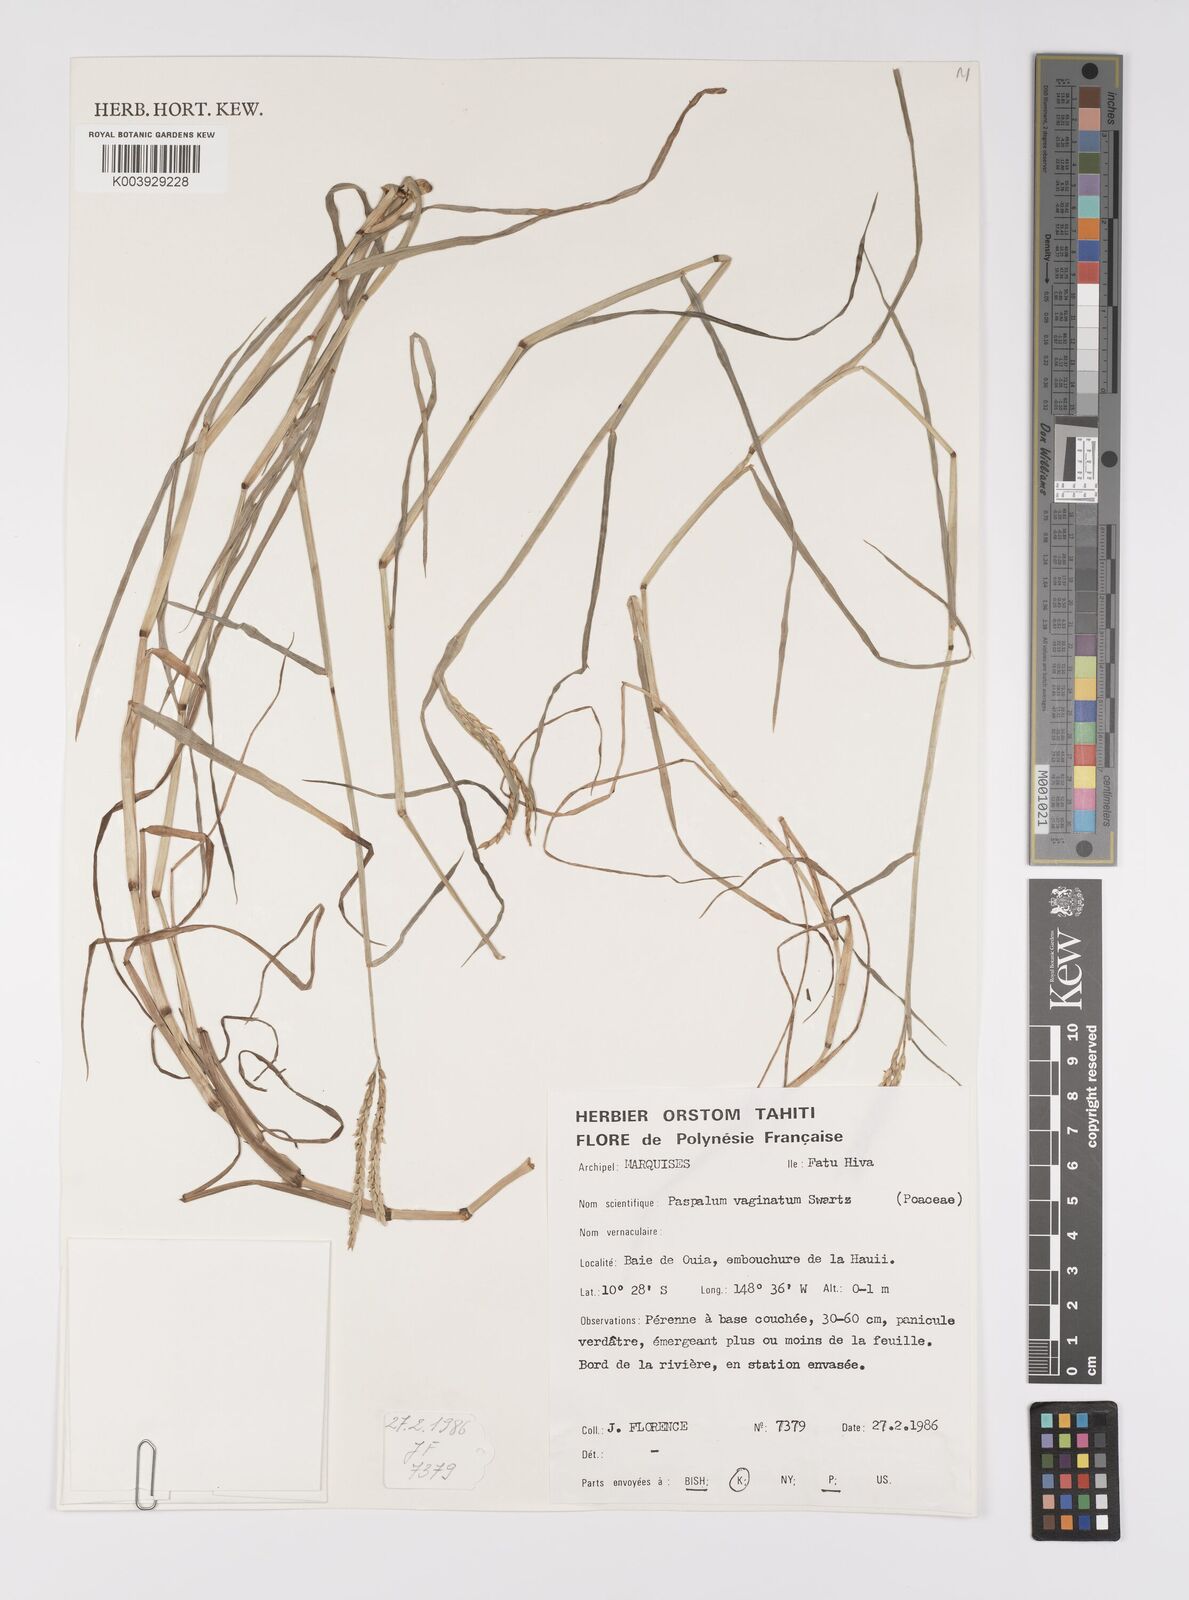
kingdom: Plantae
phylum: Tracheophyta
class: Liliopsida
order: Poales
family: Poaceae
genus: Paspalum
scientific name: Paspalum vaginatum
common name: Seashore paspalum
